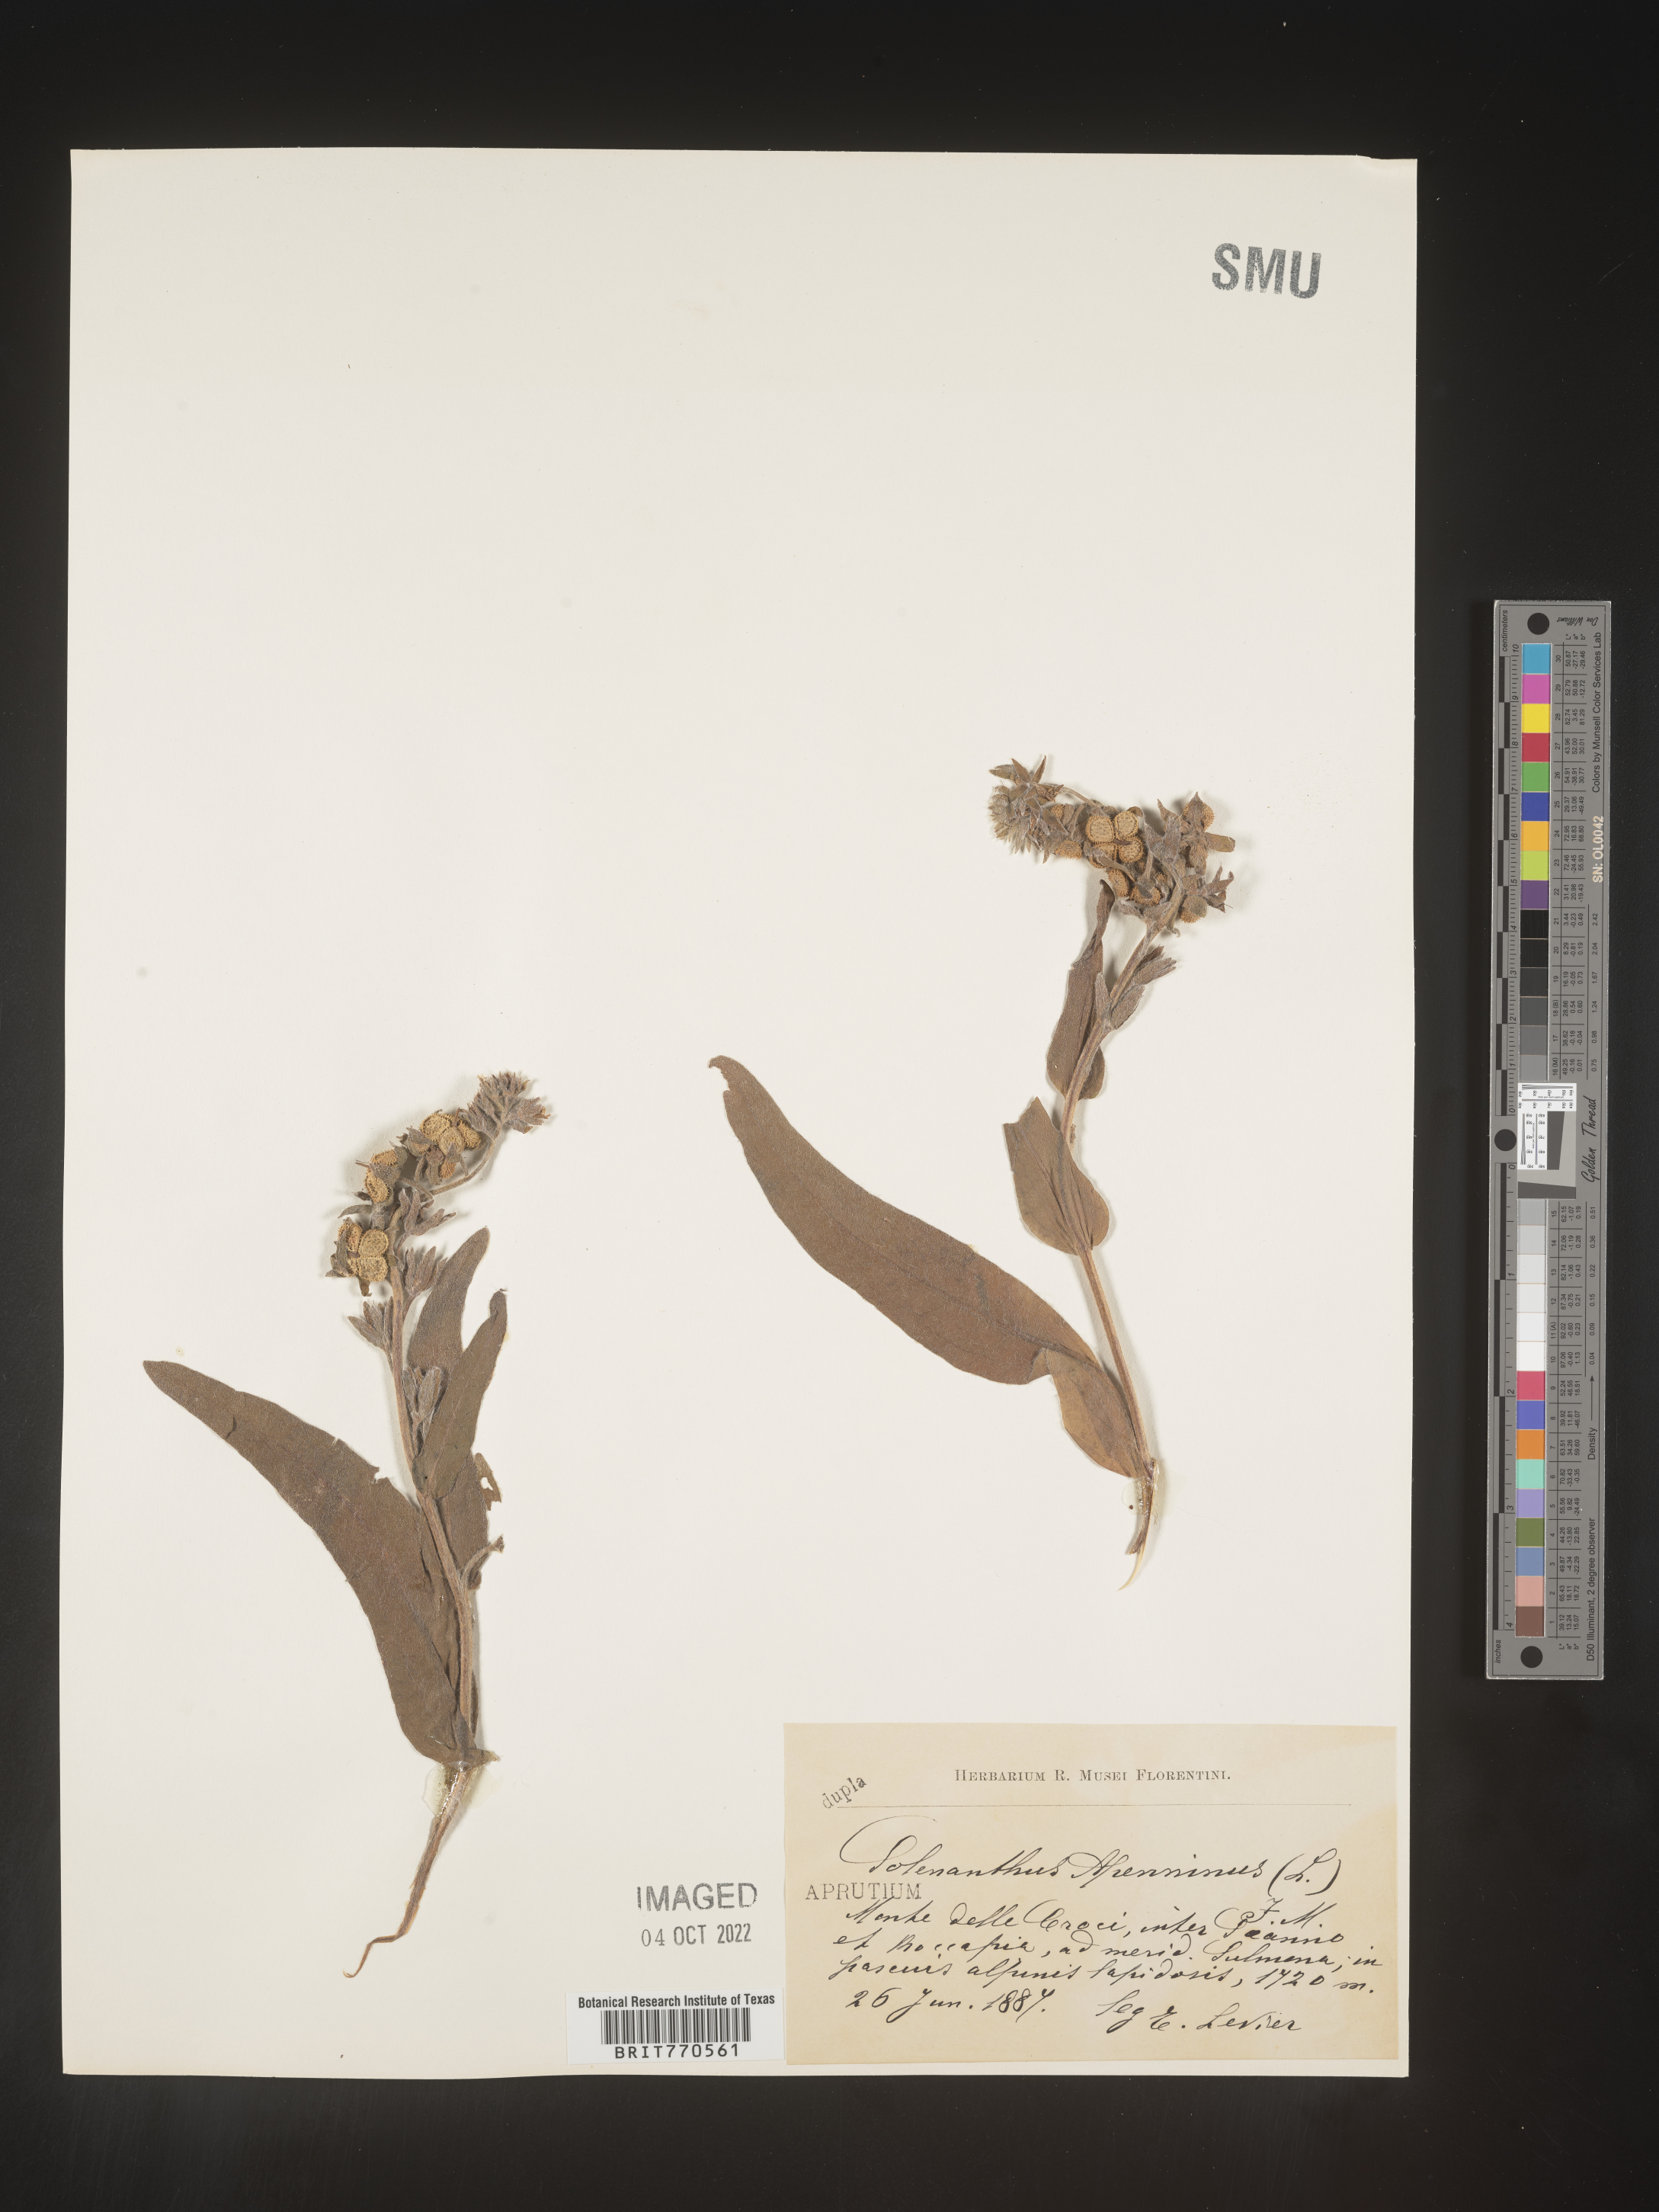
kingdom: Plantae
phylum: Tracheophyta
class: Magnoliopsida
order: Boraginales
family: Boraginaceae
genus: Solenanthus
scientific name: Solenanthus
